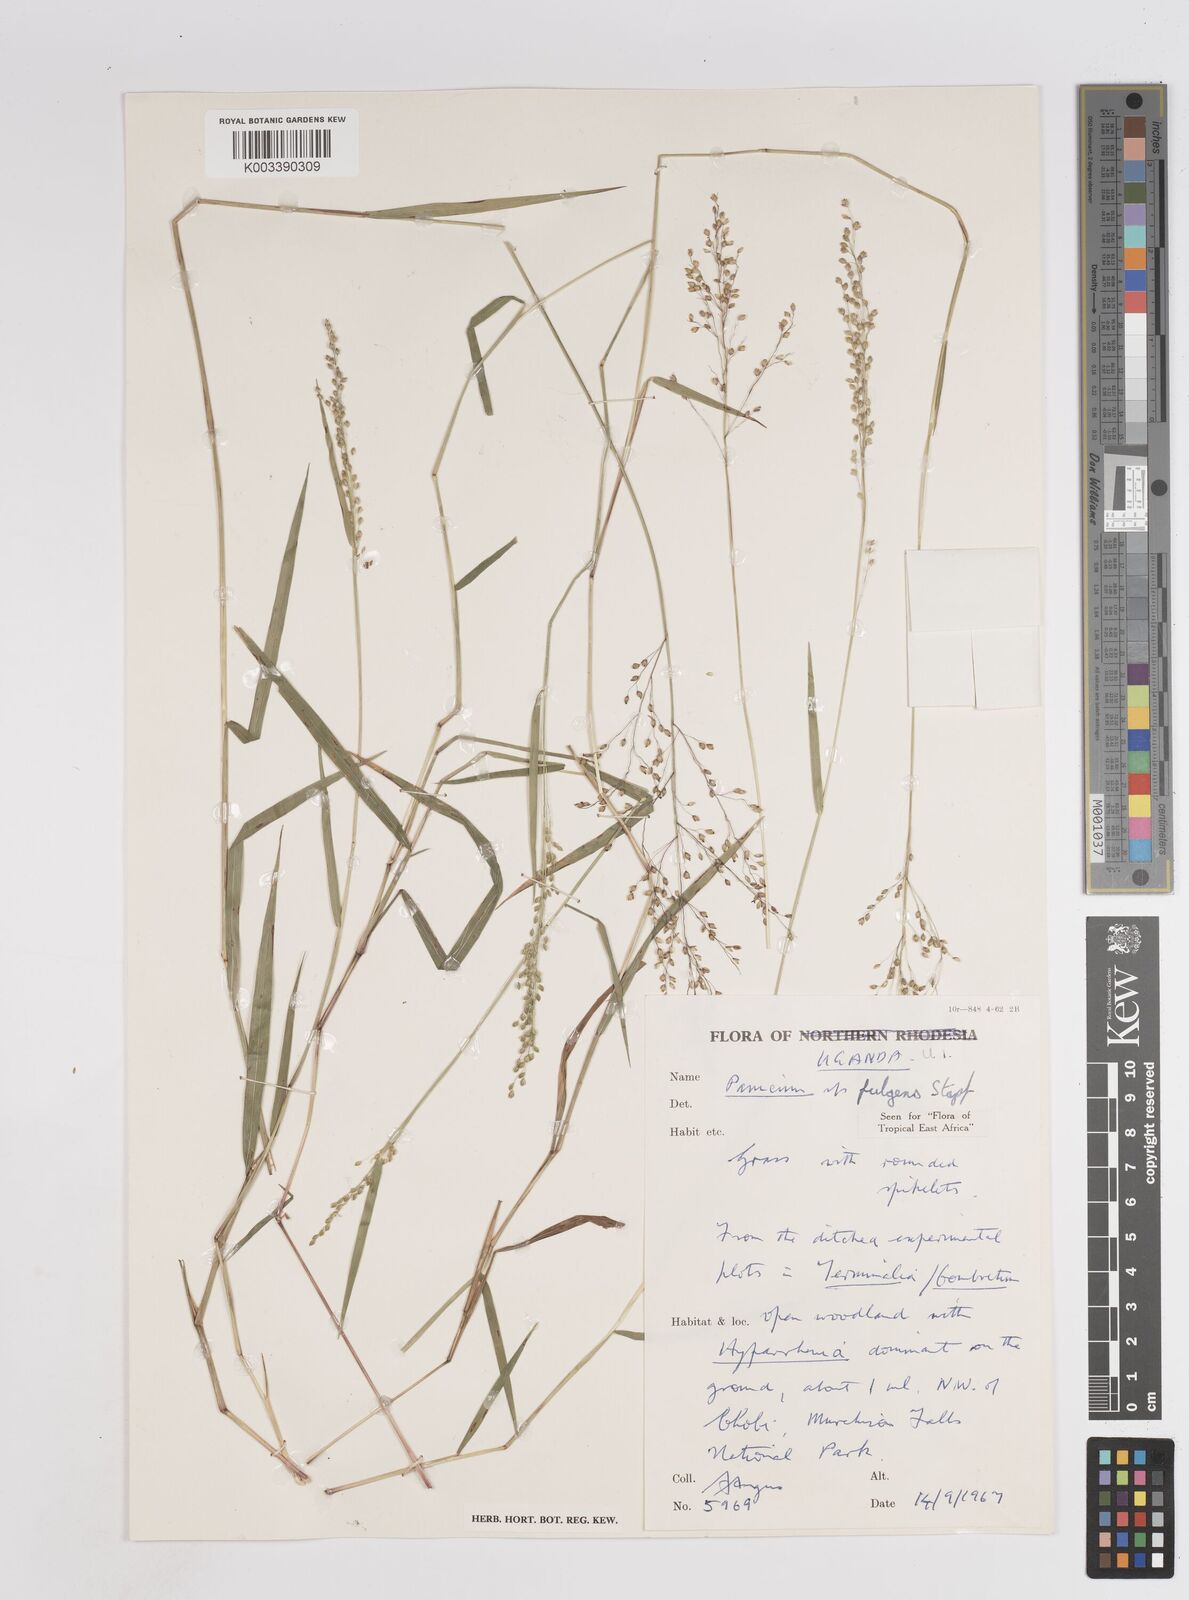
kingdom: Plantae
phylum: Tracheophyta
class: Liliopsida
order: Poales
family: Poaceae
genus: Trichanthecium
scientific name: Trichanthecium nervatum
